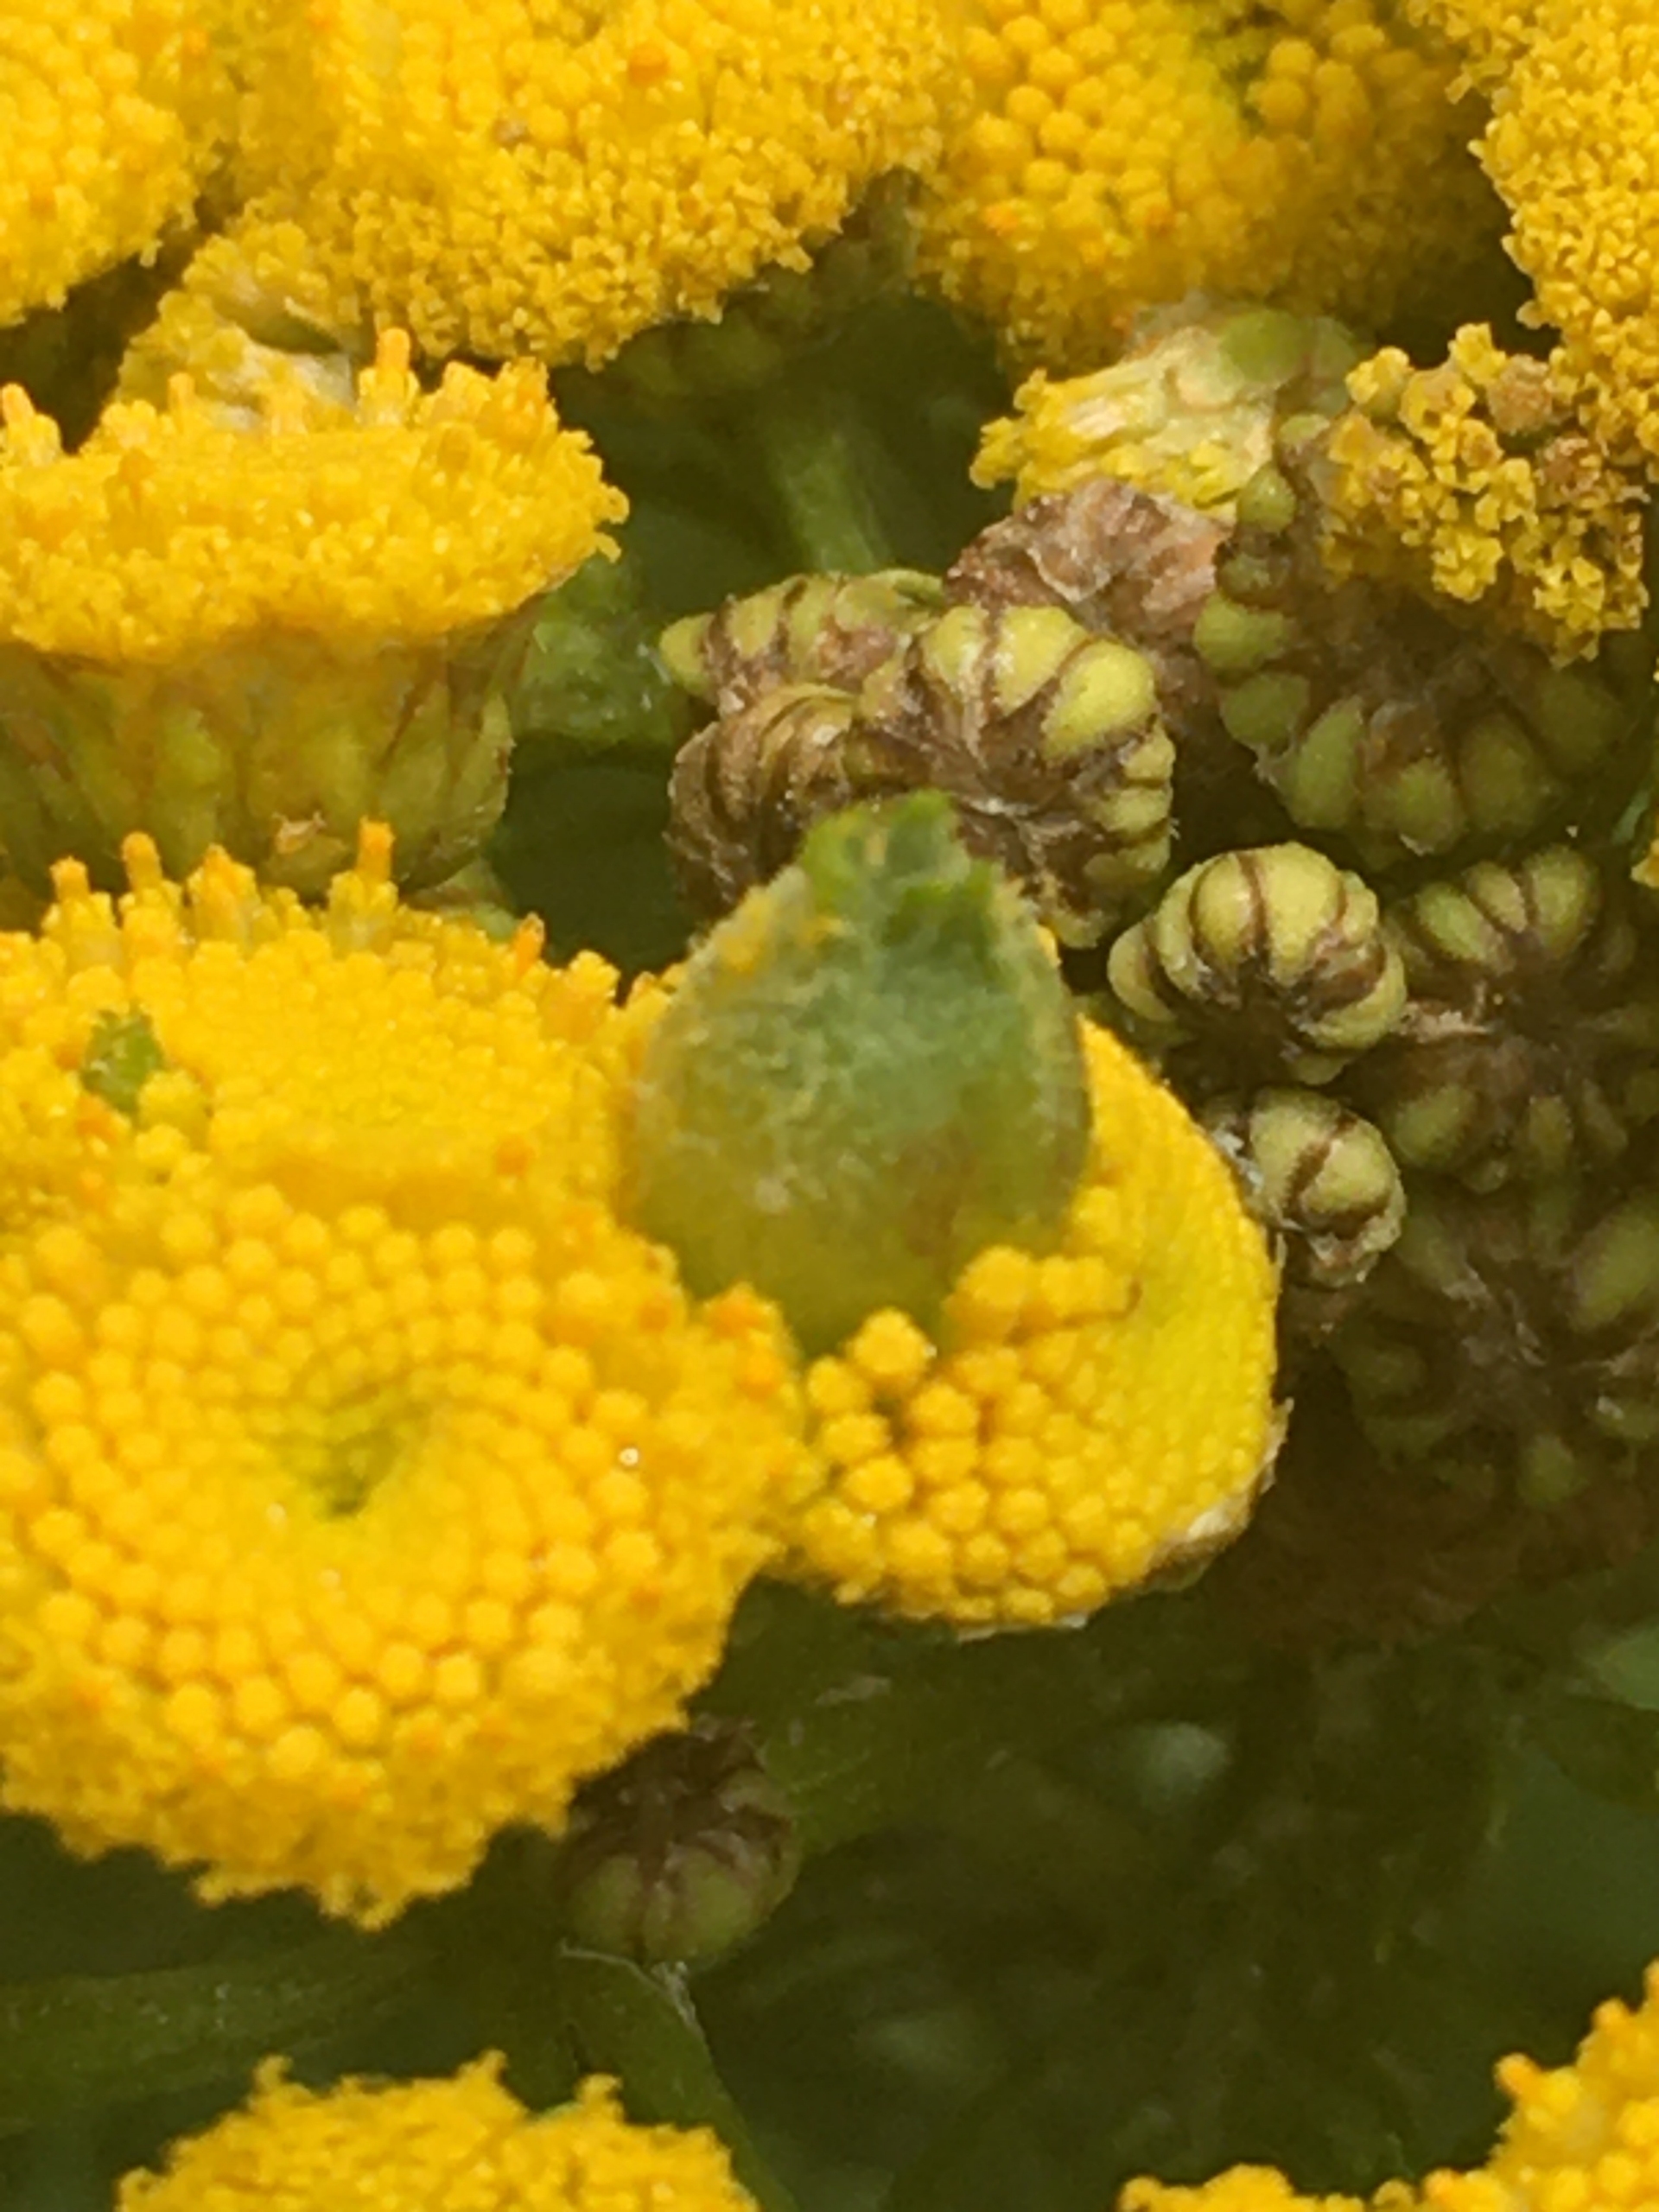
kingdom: Animalia
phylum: Arthropoda
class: Insecta
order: Diptera
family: Cecidomyiidae
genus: Rhopalomyia
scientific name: Rhopalomyia tanaceticolus
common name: Rejnfangalmyg
